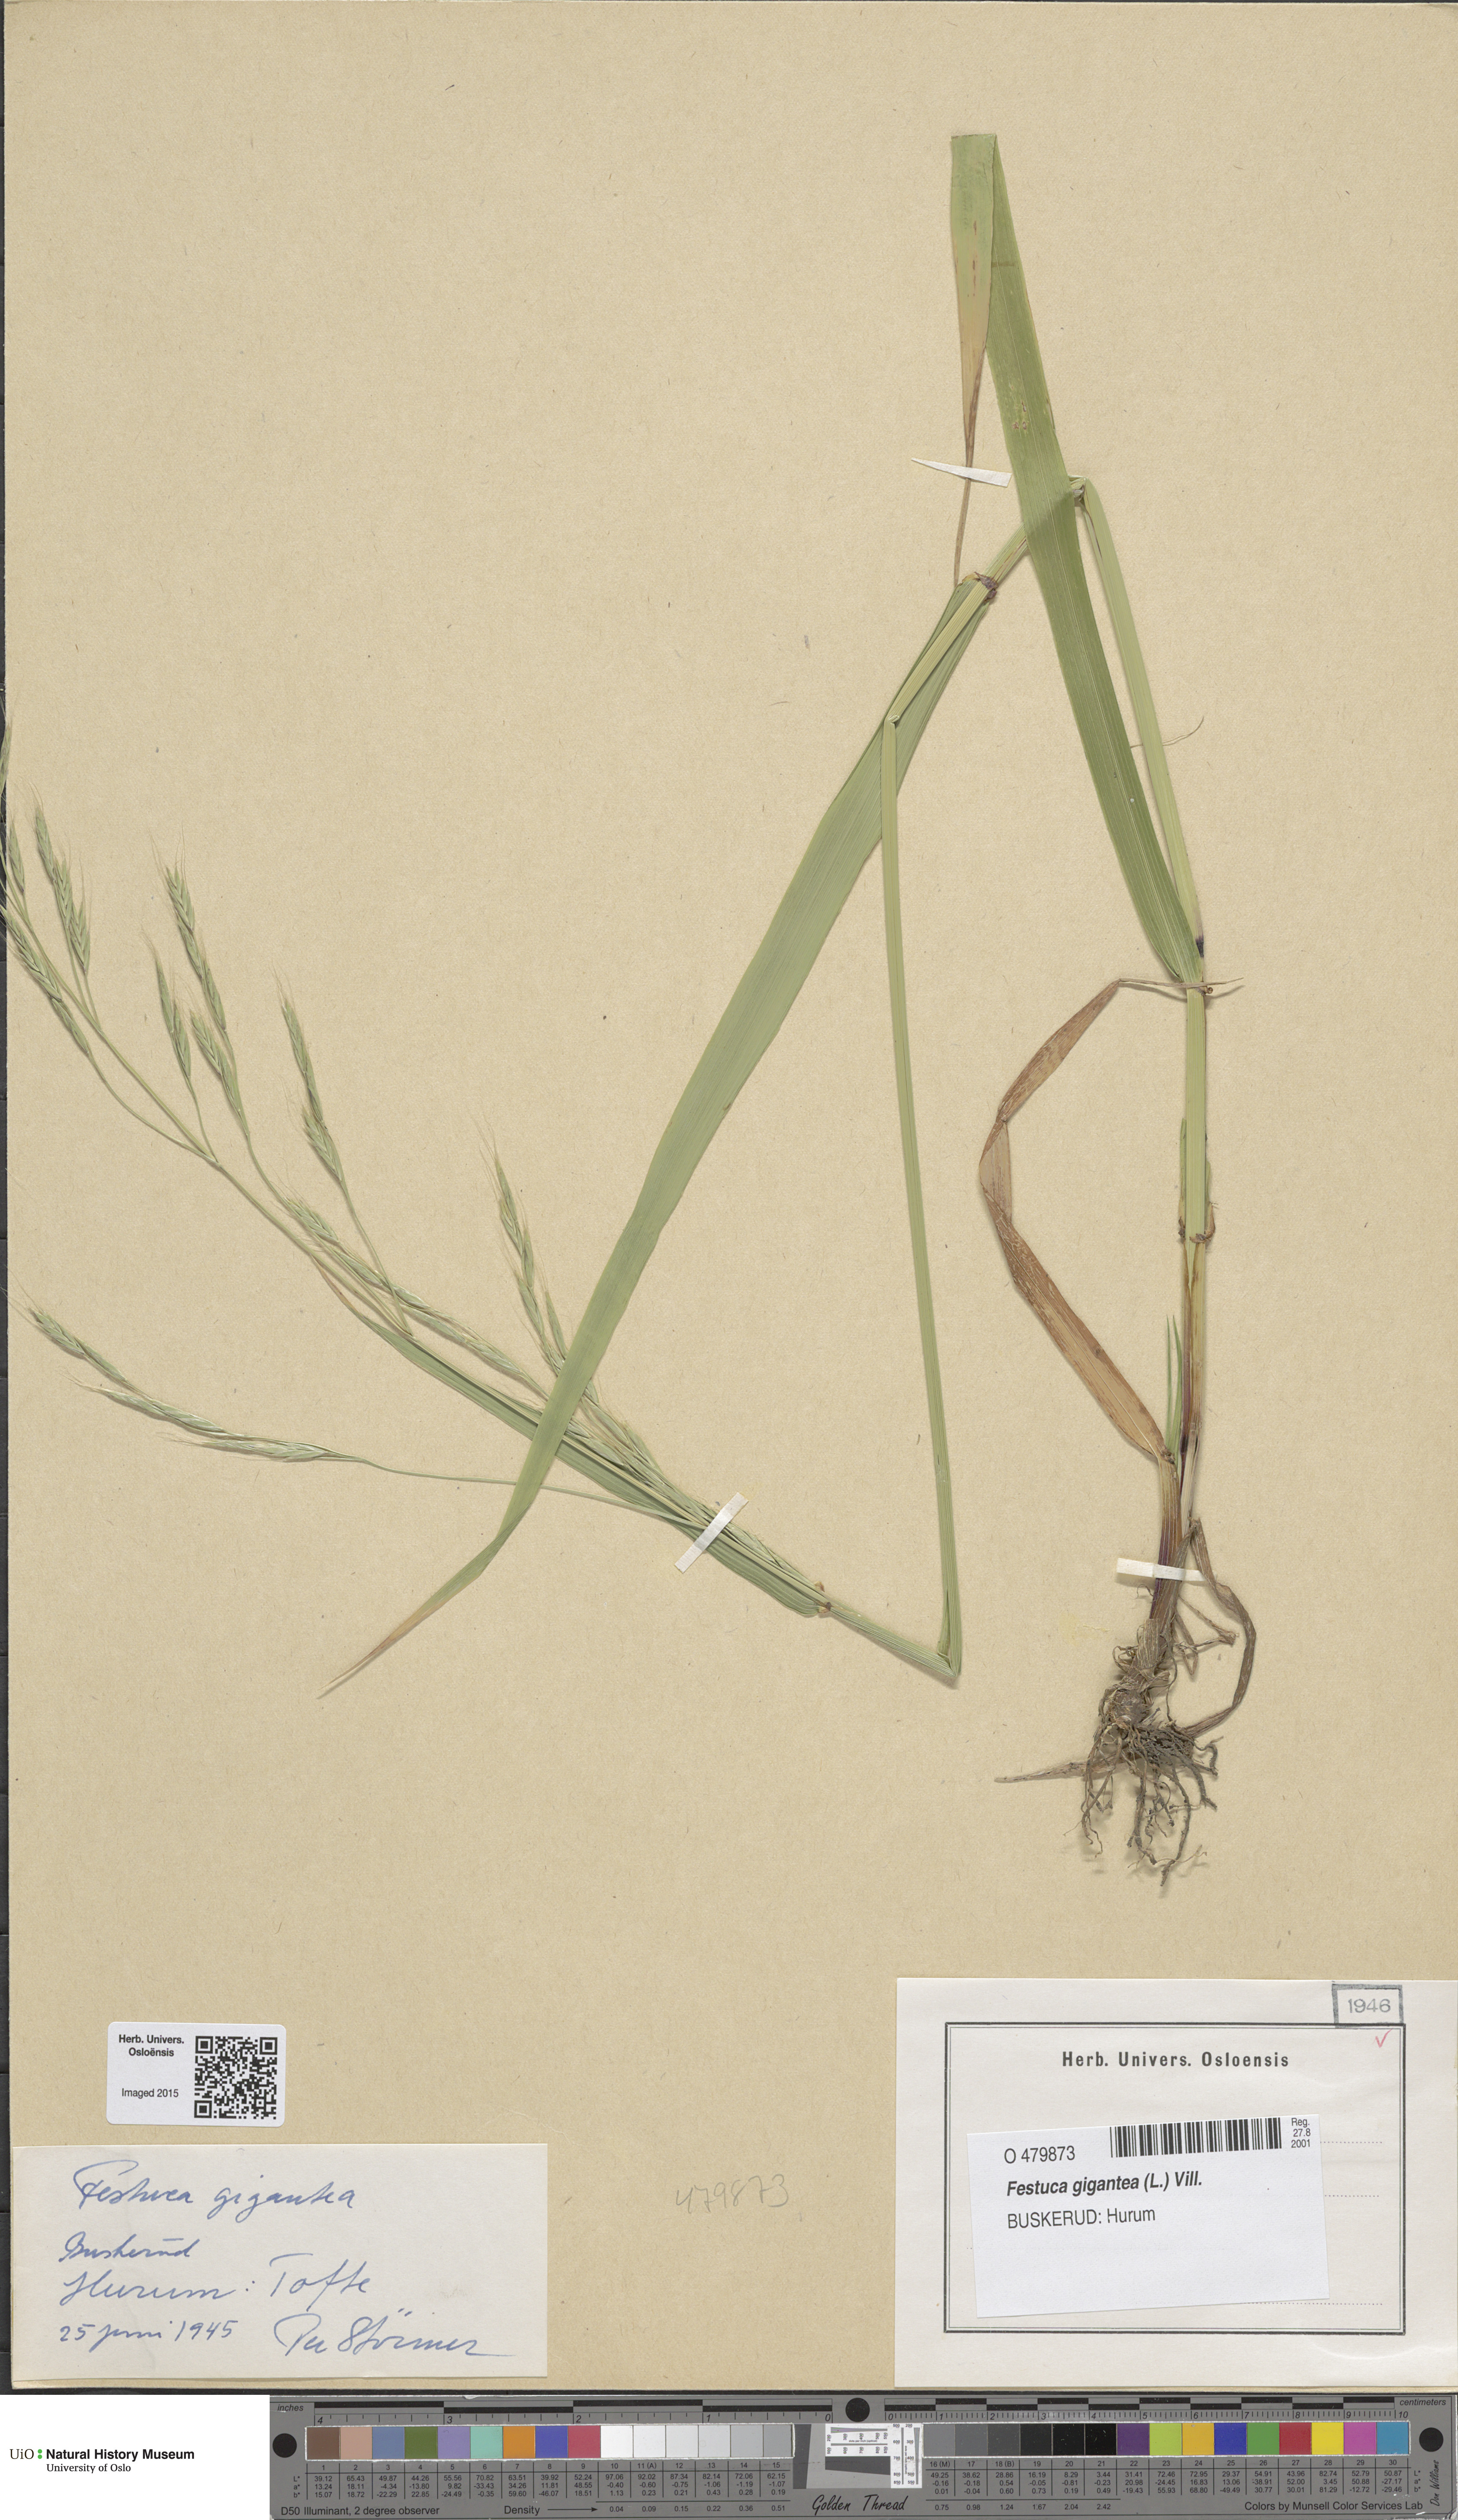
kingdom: Plantae
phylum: Tracheophyta
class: Liliopsida
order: Poales
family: Poaceae
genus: Lolium
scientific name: Lolium giganteum
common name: Giant fescue
